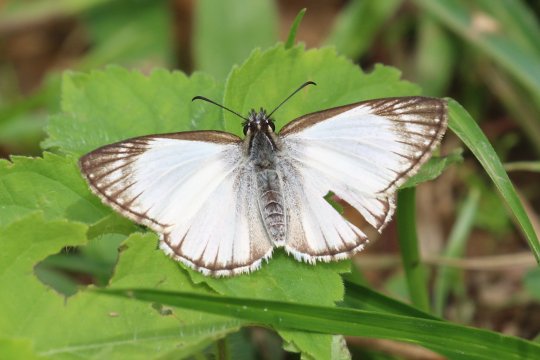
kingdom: Animalia
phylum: Arthropoda
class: Insecta
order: Lepidoptera
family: Hesperiidae
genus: Heliopetes
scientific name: Heliopetes arsalte
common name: Veined White-Skipper
